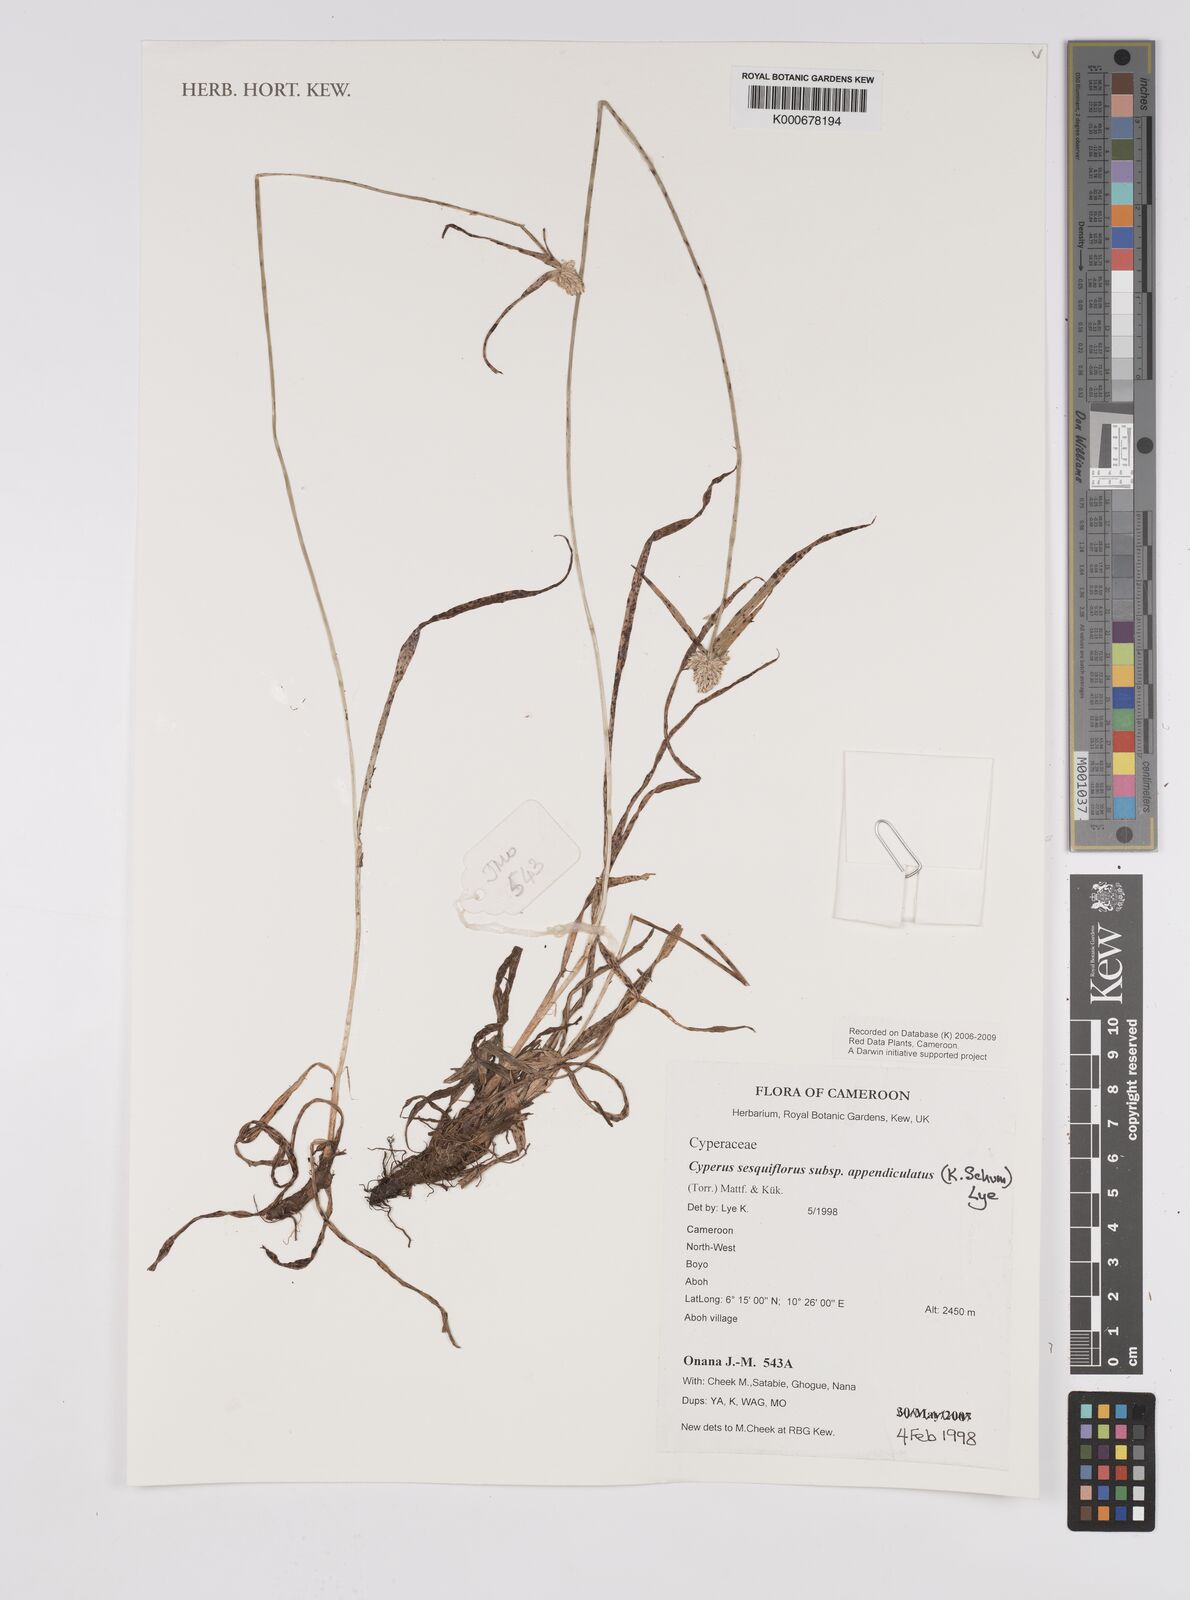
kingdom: Plantae
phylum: Tracheophyta
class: Liliopsida
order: Poales
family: Cyperaceae
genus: Cyperus
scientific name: Cyperus sesquiflorus
